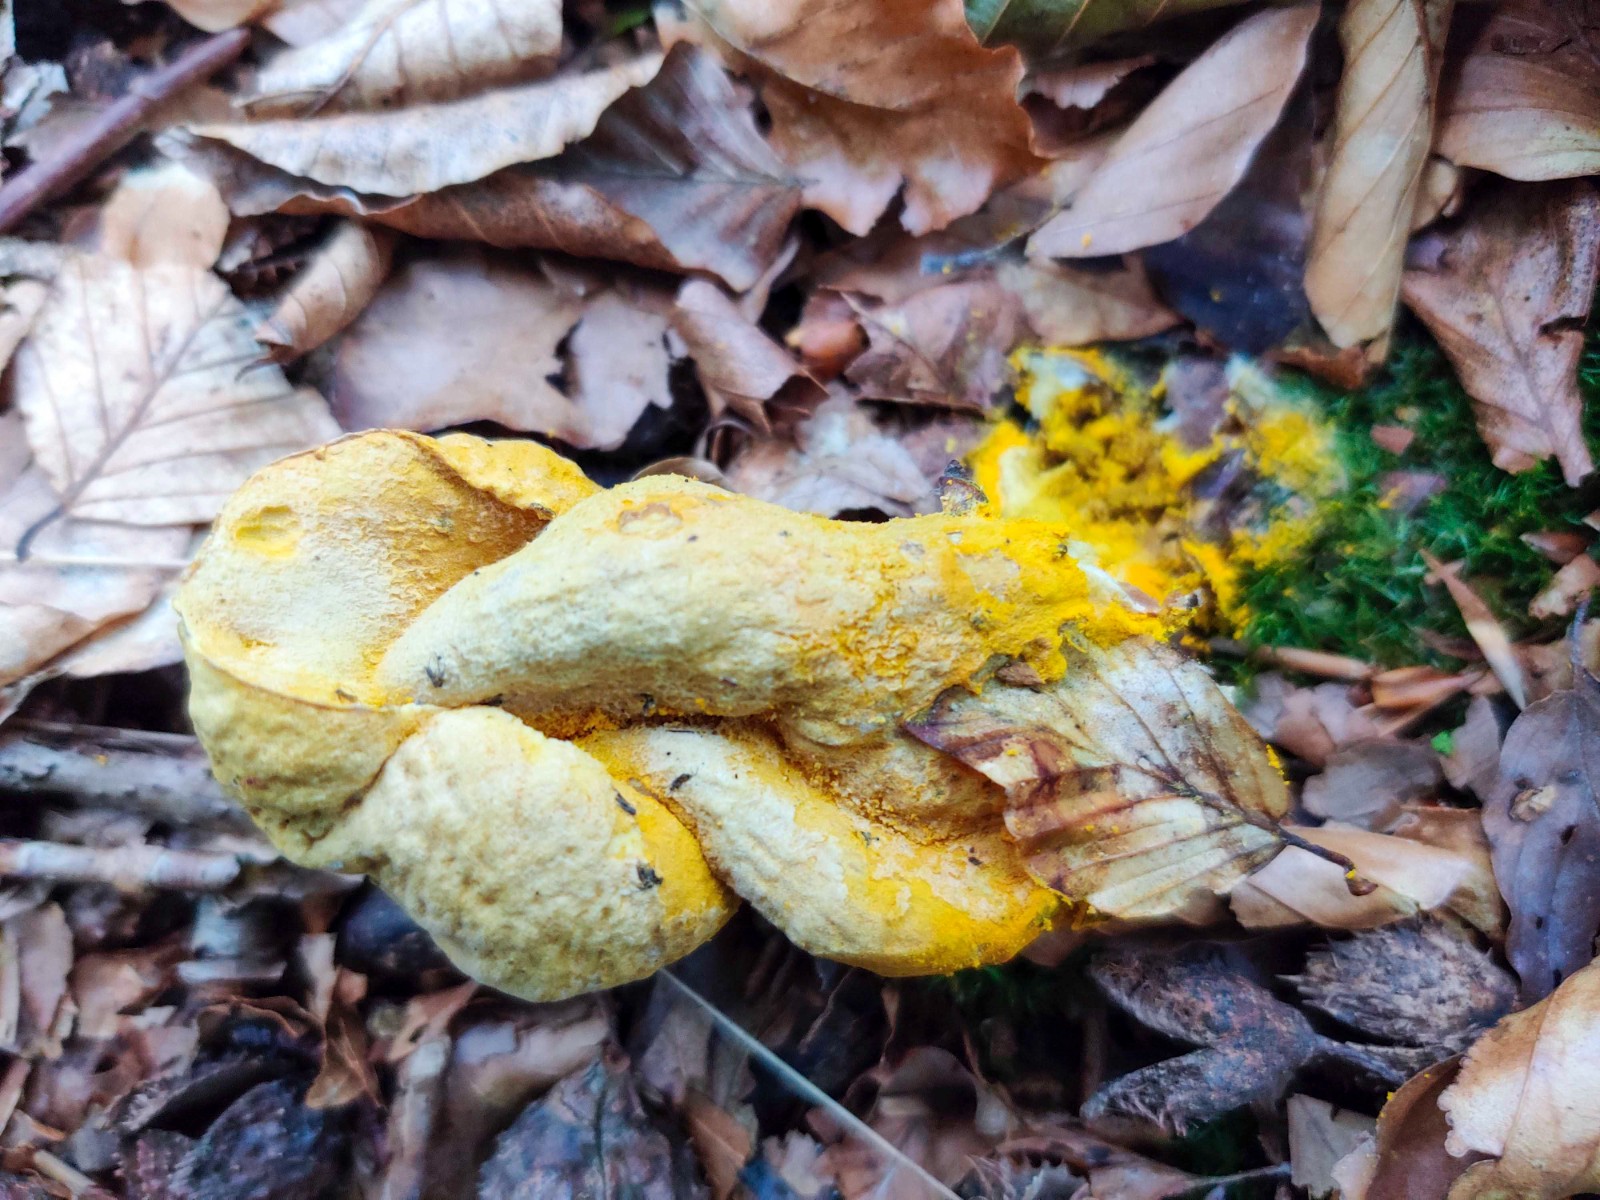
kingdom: Fungi
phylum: Ascomycota
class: Sordariomycetes
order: Hypocreales
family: Hypocreaceae
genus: Hypomyces
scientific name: Hypomyces chrysospermus
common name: gulskimmel-snylteskorpe
